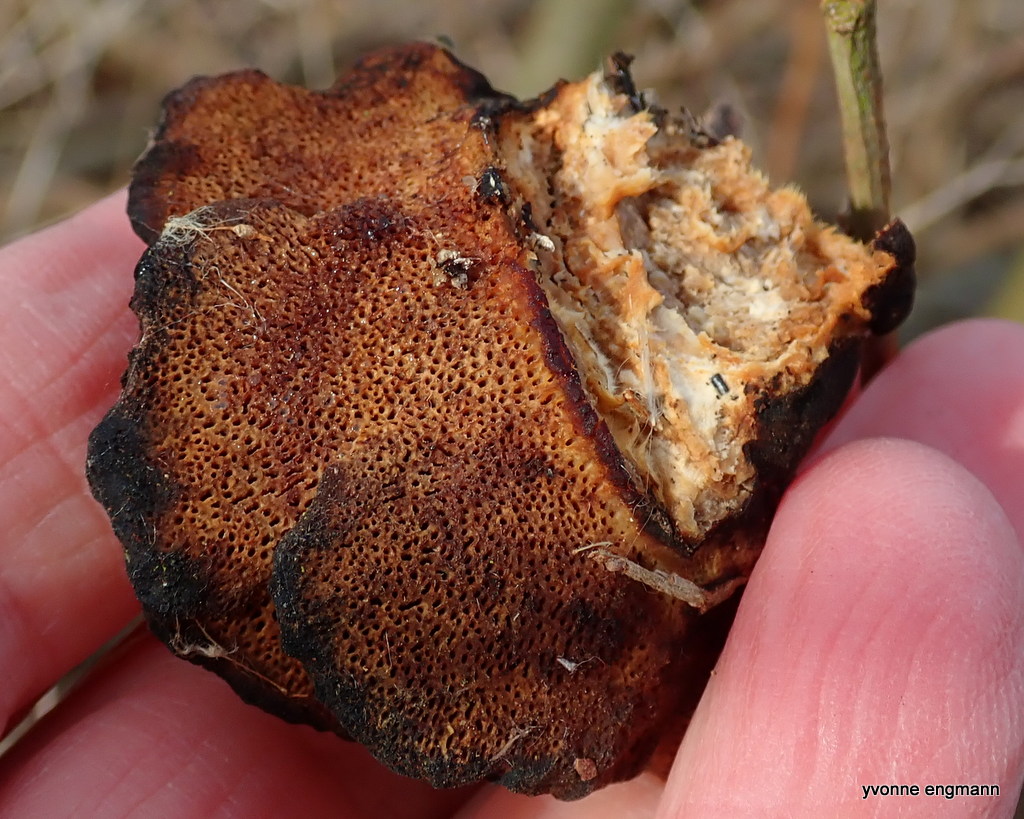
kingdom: Fungi
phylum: Basidiomycota
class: Agaricomycetes
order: Polyporales
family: Polyporaceae
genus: Daedaleopsis
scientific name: Daedaleopsis confragosa
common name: rødmende læderporesvamp
